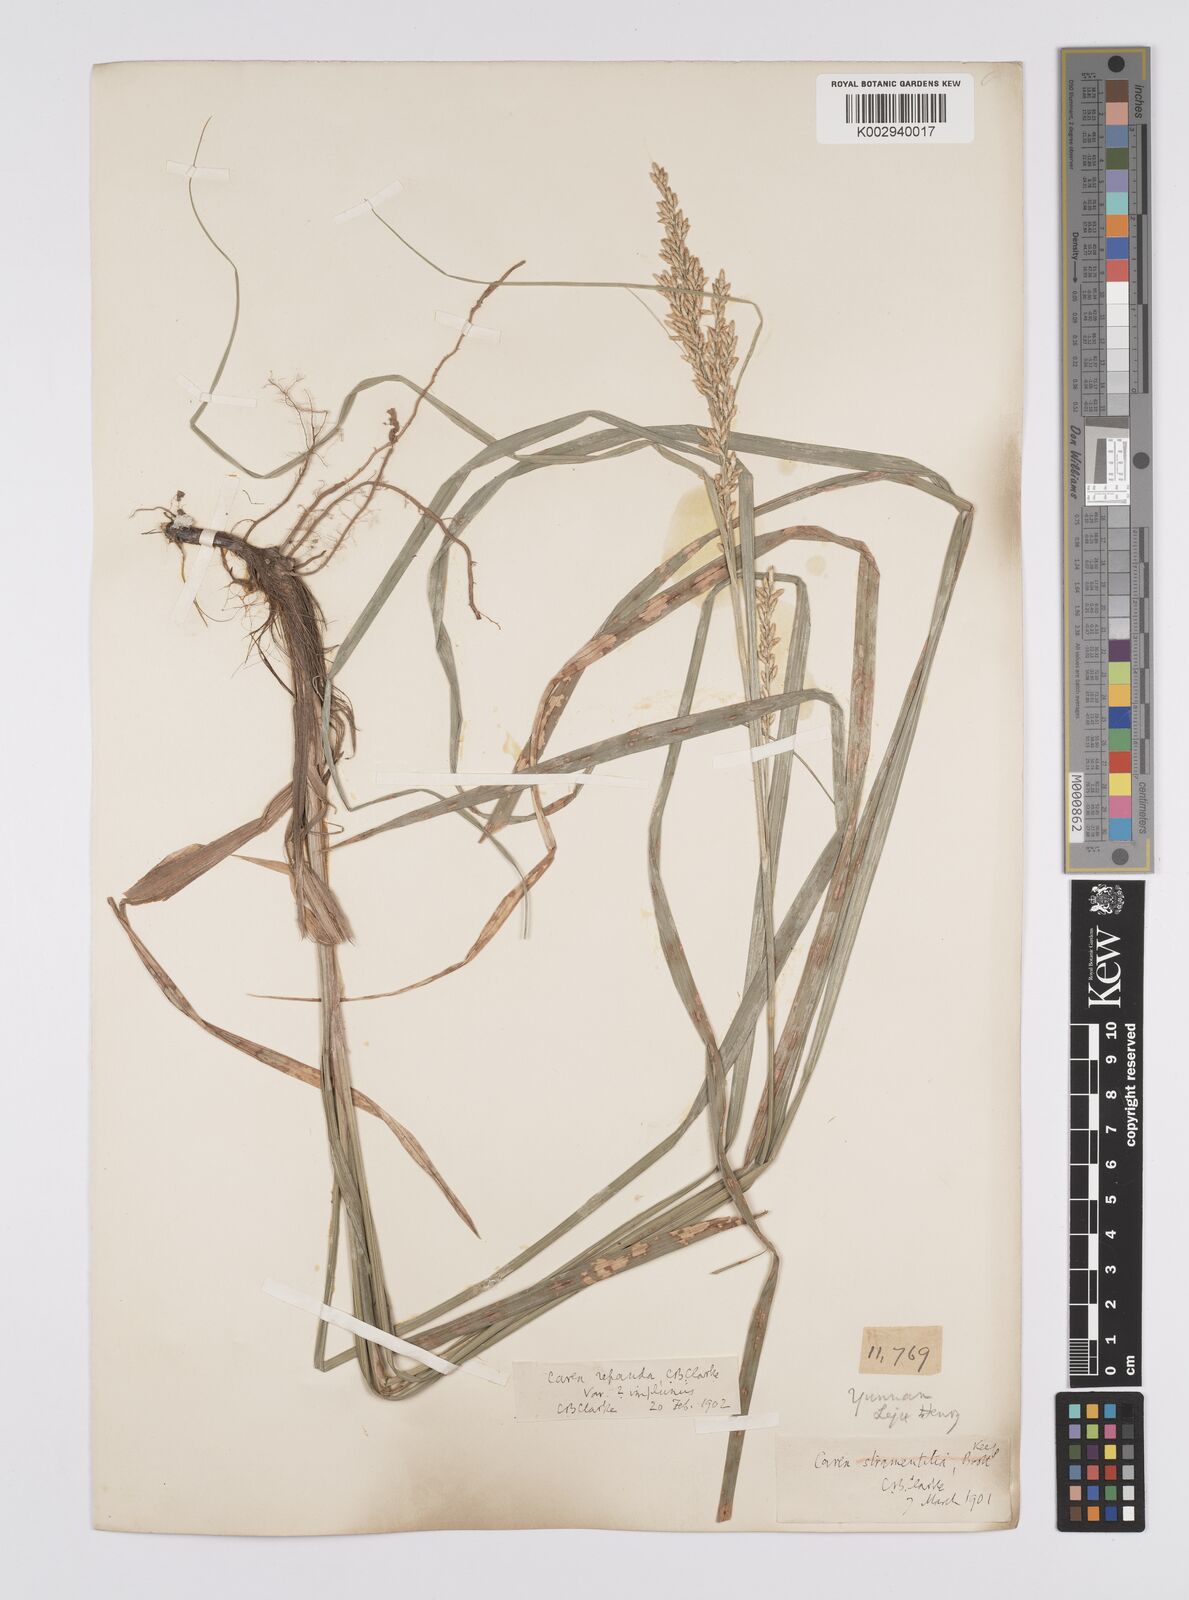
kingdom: Plantae
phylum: Tracheophyta
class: Liliopsida
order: Poales
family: Cyperaceae
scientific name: Cyperaceae
